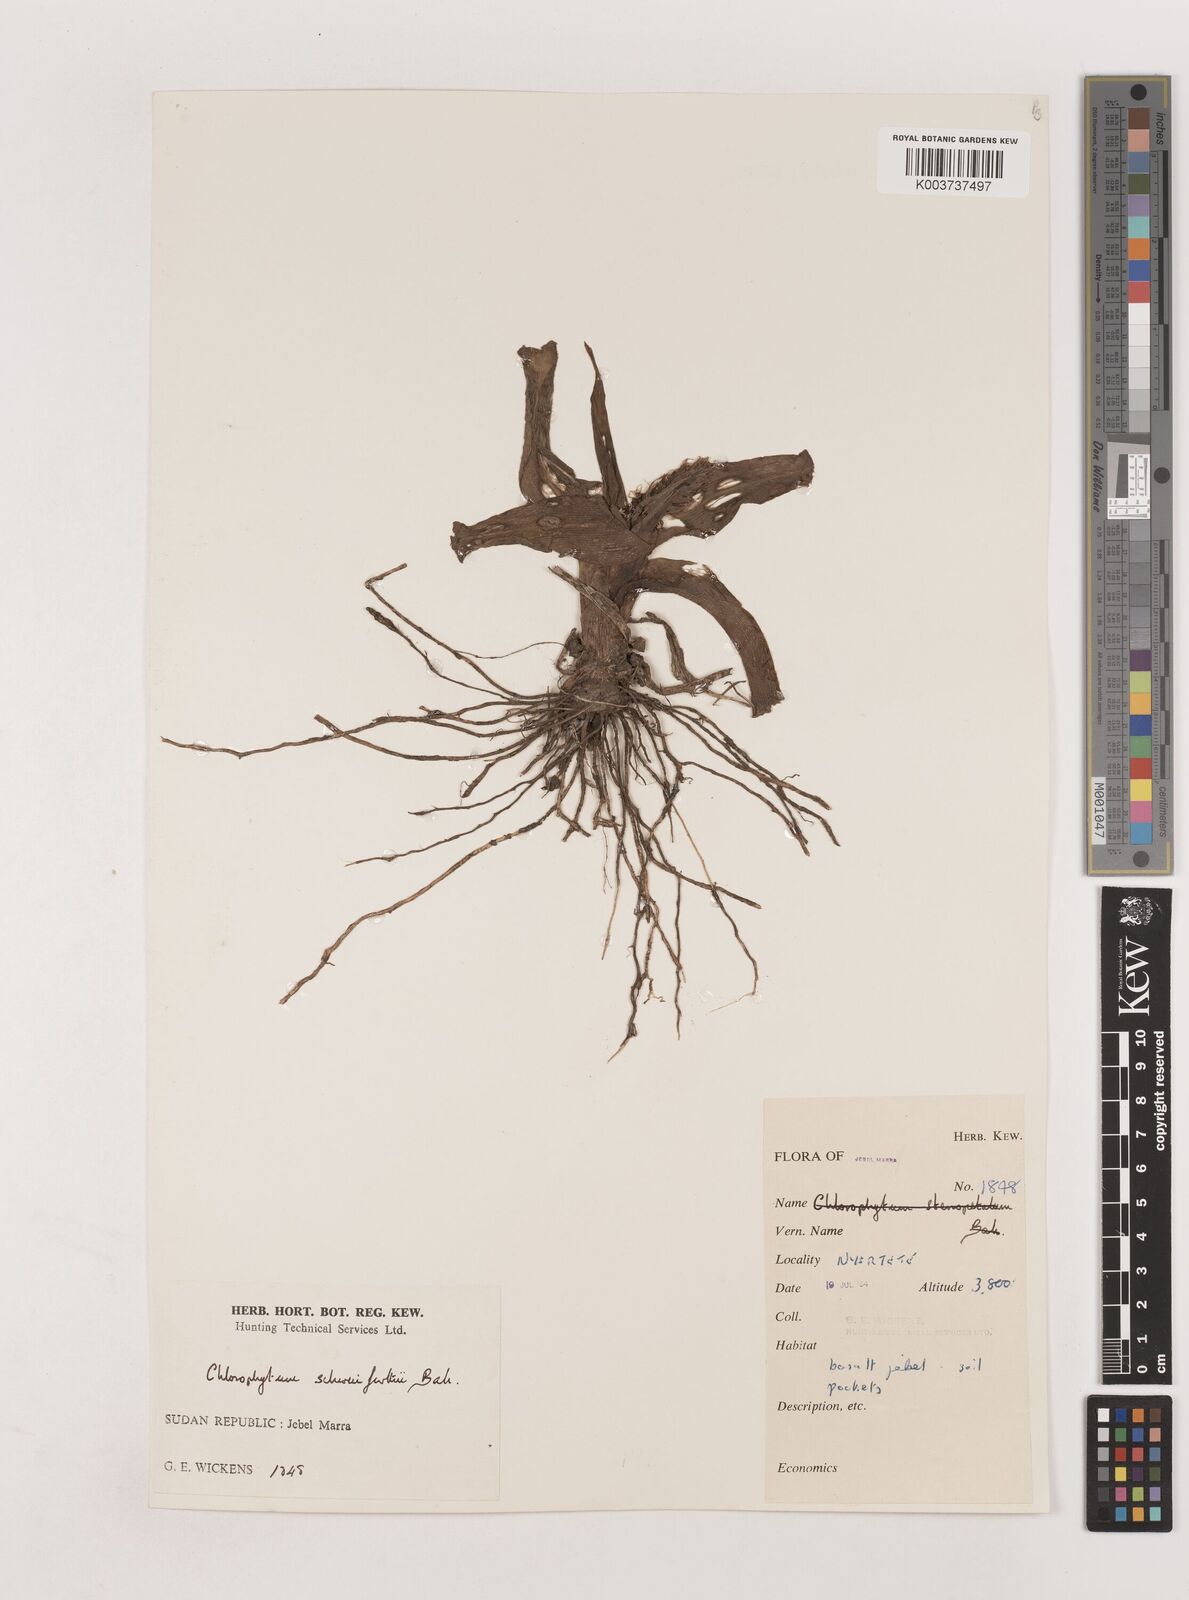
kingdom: Plantae
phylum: Tracheophyta
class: Liliopsida
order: Asparagales
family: Asparagaceae
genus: Chlorophytum
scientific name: Chlorophytum macrophyllum
